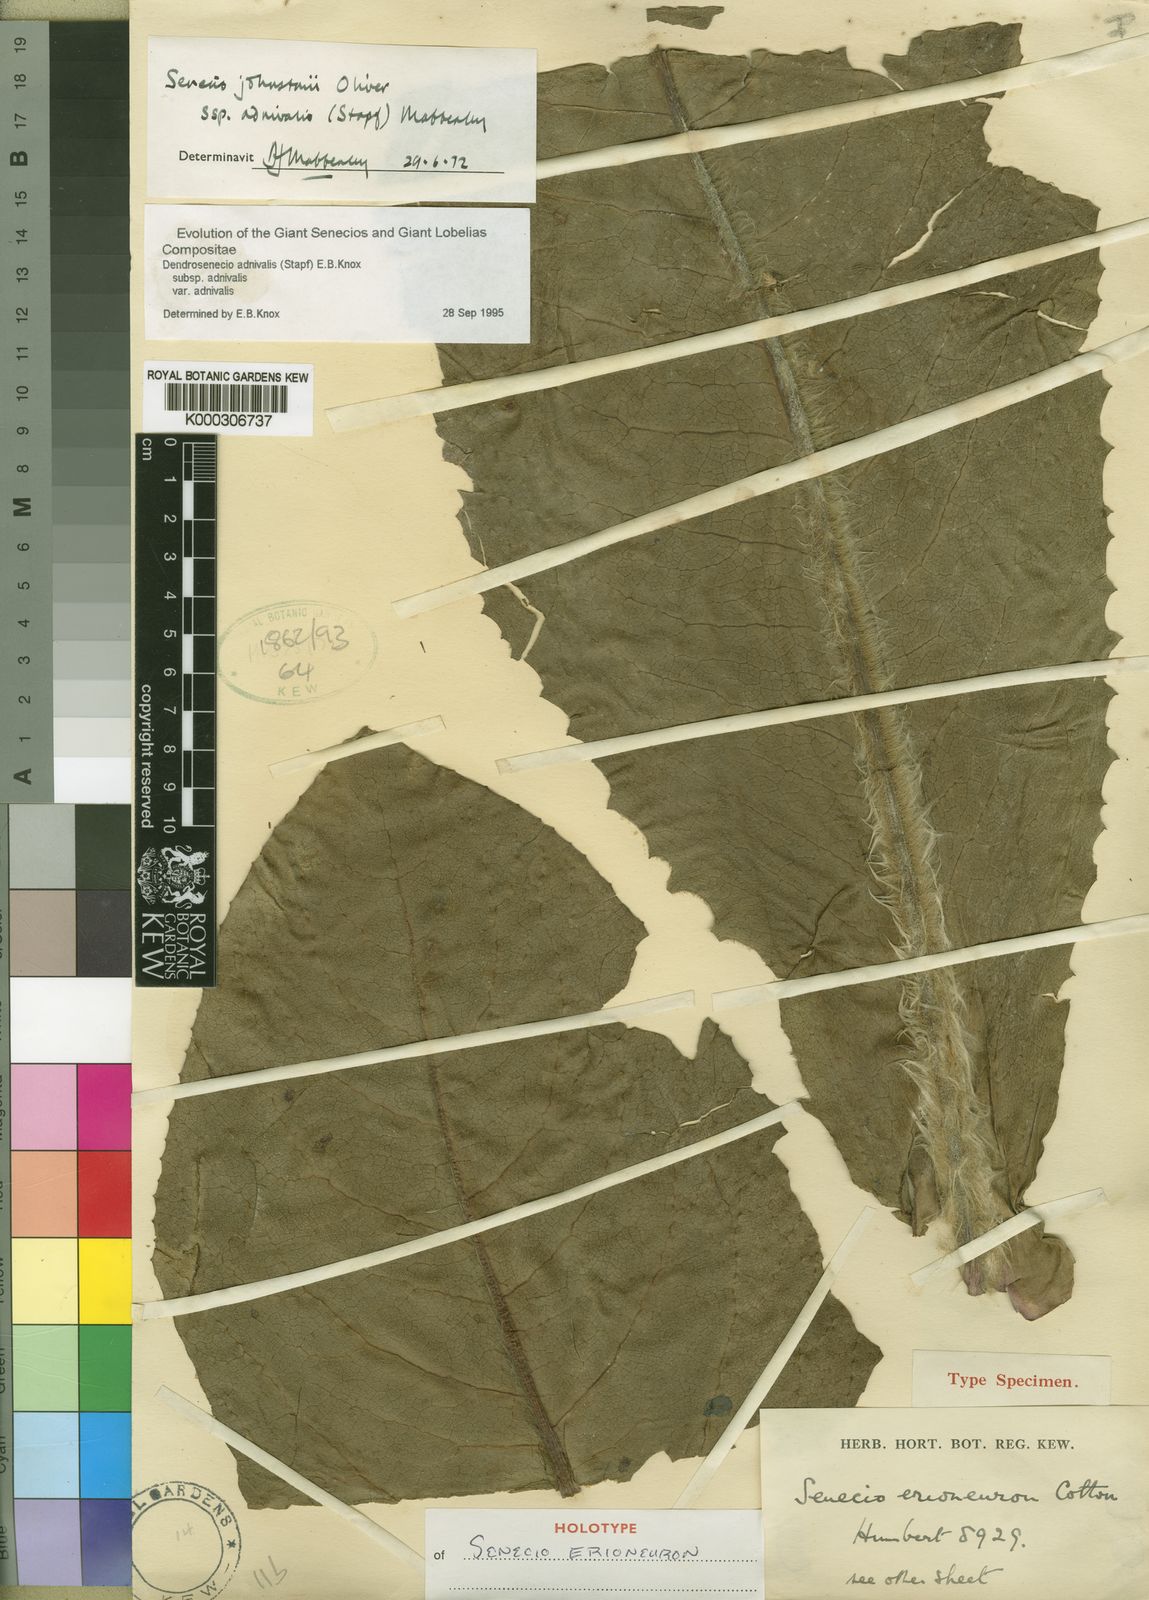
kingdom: Plantae
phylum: Tracheophyta
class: Magnoliopsida
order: Asterales
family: Asteraceae
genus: Senecio
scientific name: Senecio
